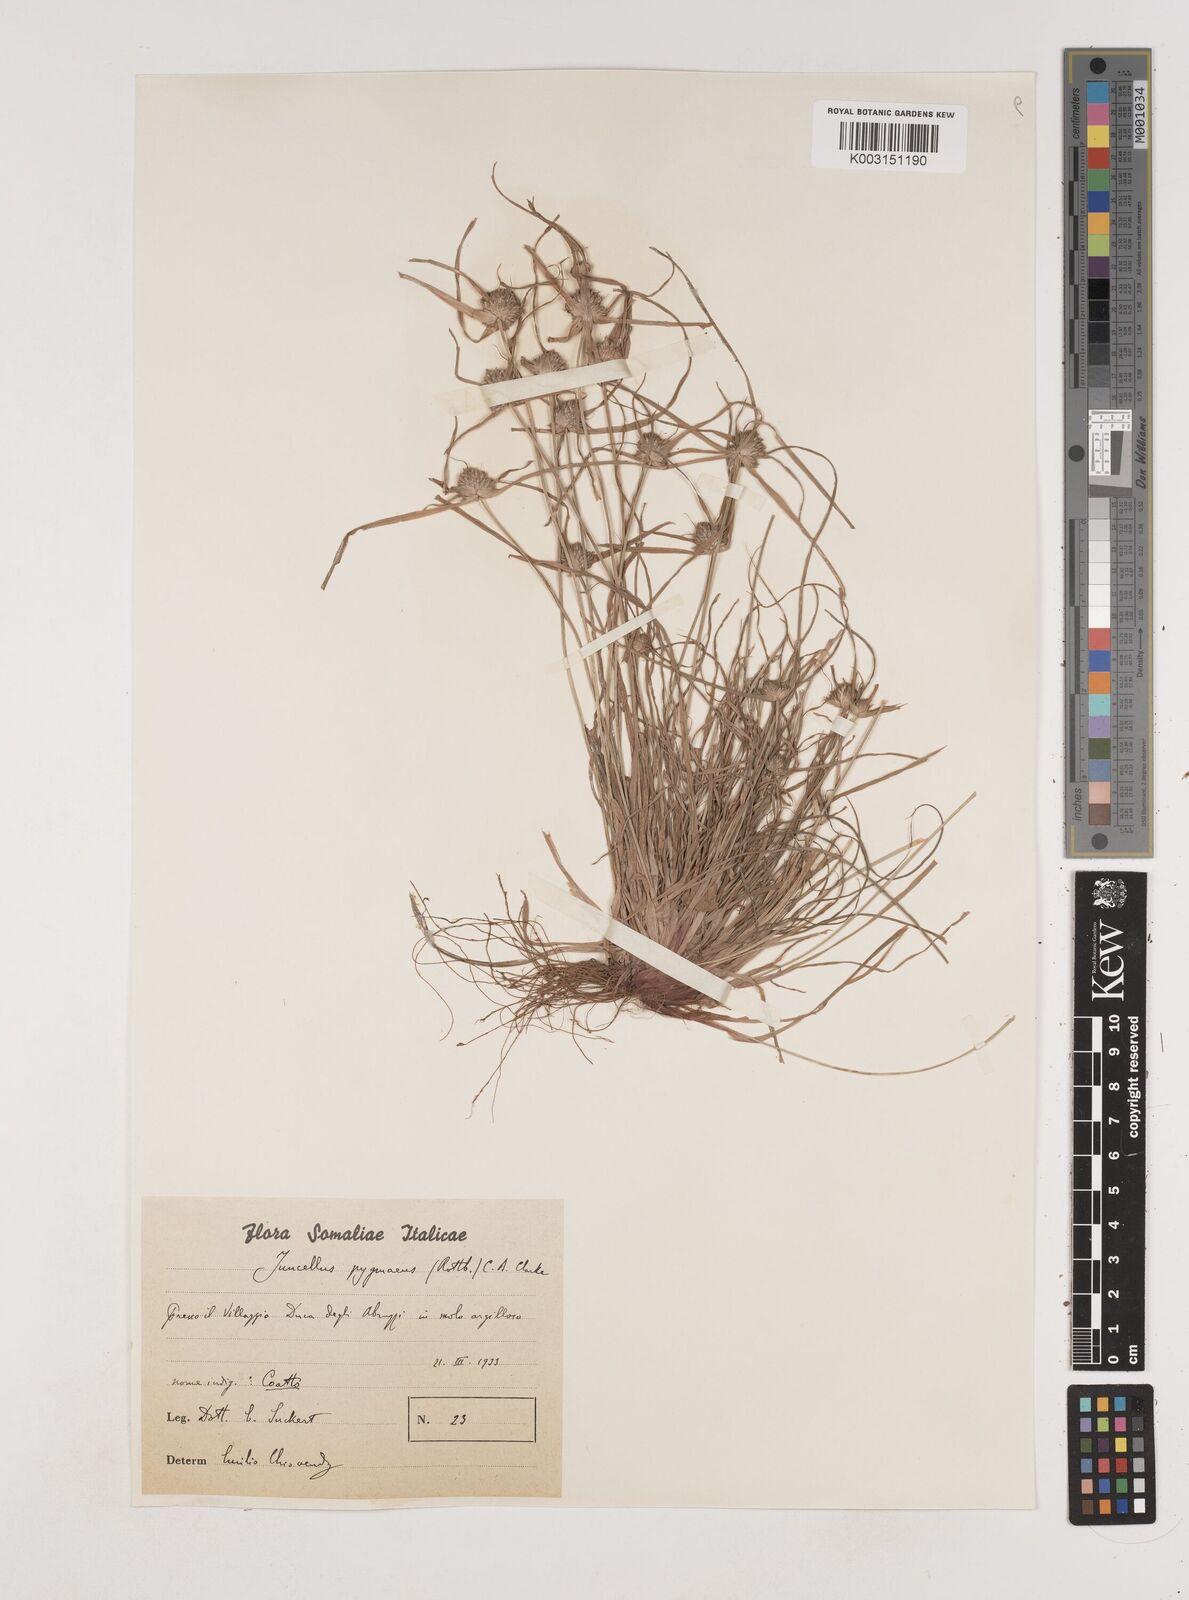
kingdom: Plantae
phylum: Tracheophyta
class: Liliopsida
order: Poales
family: Cyperaceae
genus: Cyperus
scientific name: Cyperus michelianus
